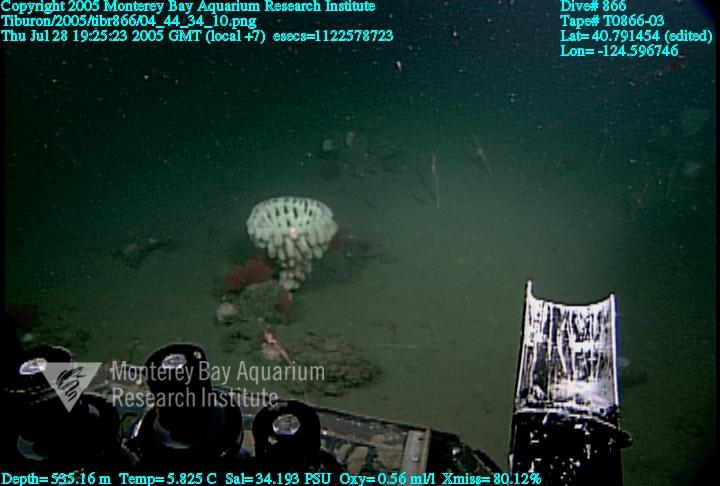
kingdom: Animalia
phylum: Porifera
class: Hexactinellida
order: Sceptrulophora
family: Aphrocallistidae
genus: Heterochone
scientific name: Heterochone calyx
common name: Fingered goblet glass sponge
